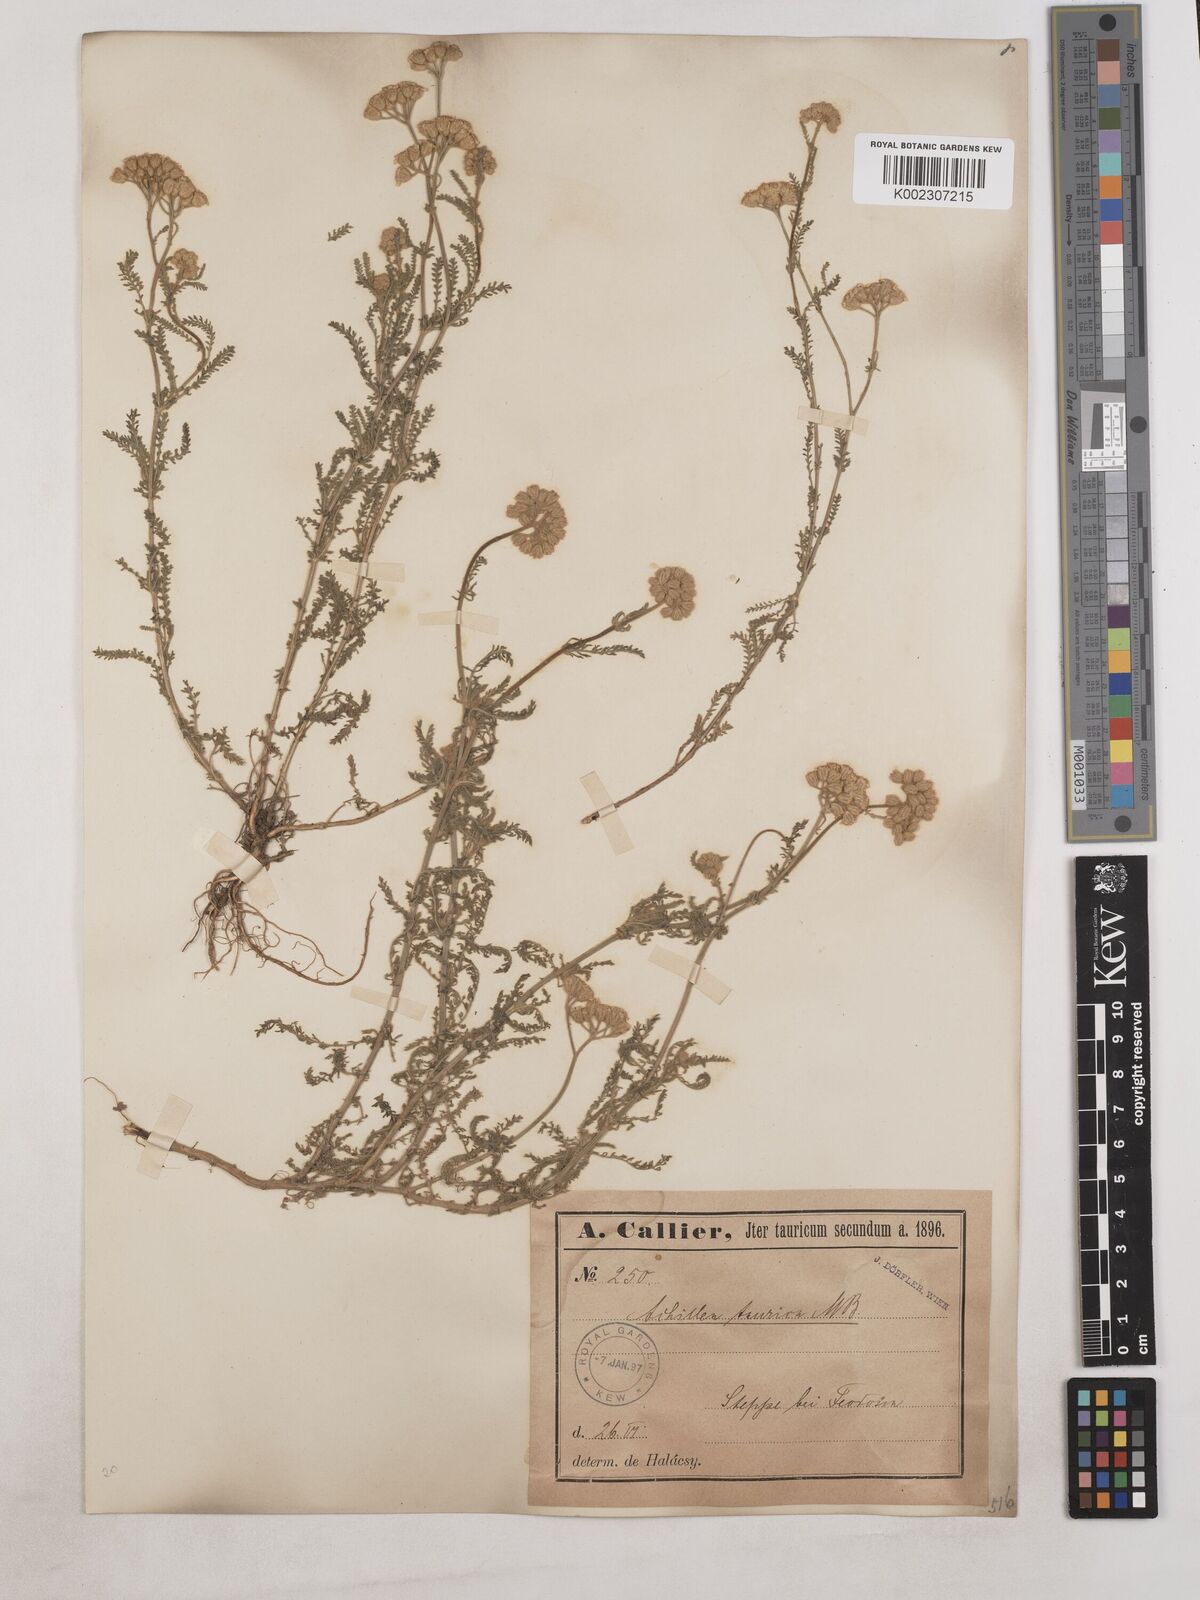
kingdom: Plantae
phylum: Tracheophyta
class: Magnoliopsida
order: Asterales
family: Asteraceae
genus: Achillea
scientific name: Achillea leptophylla
